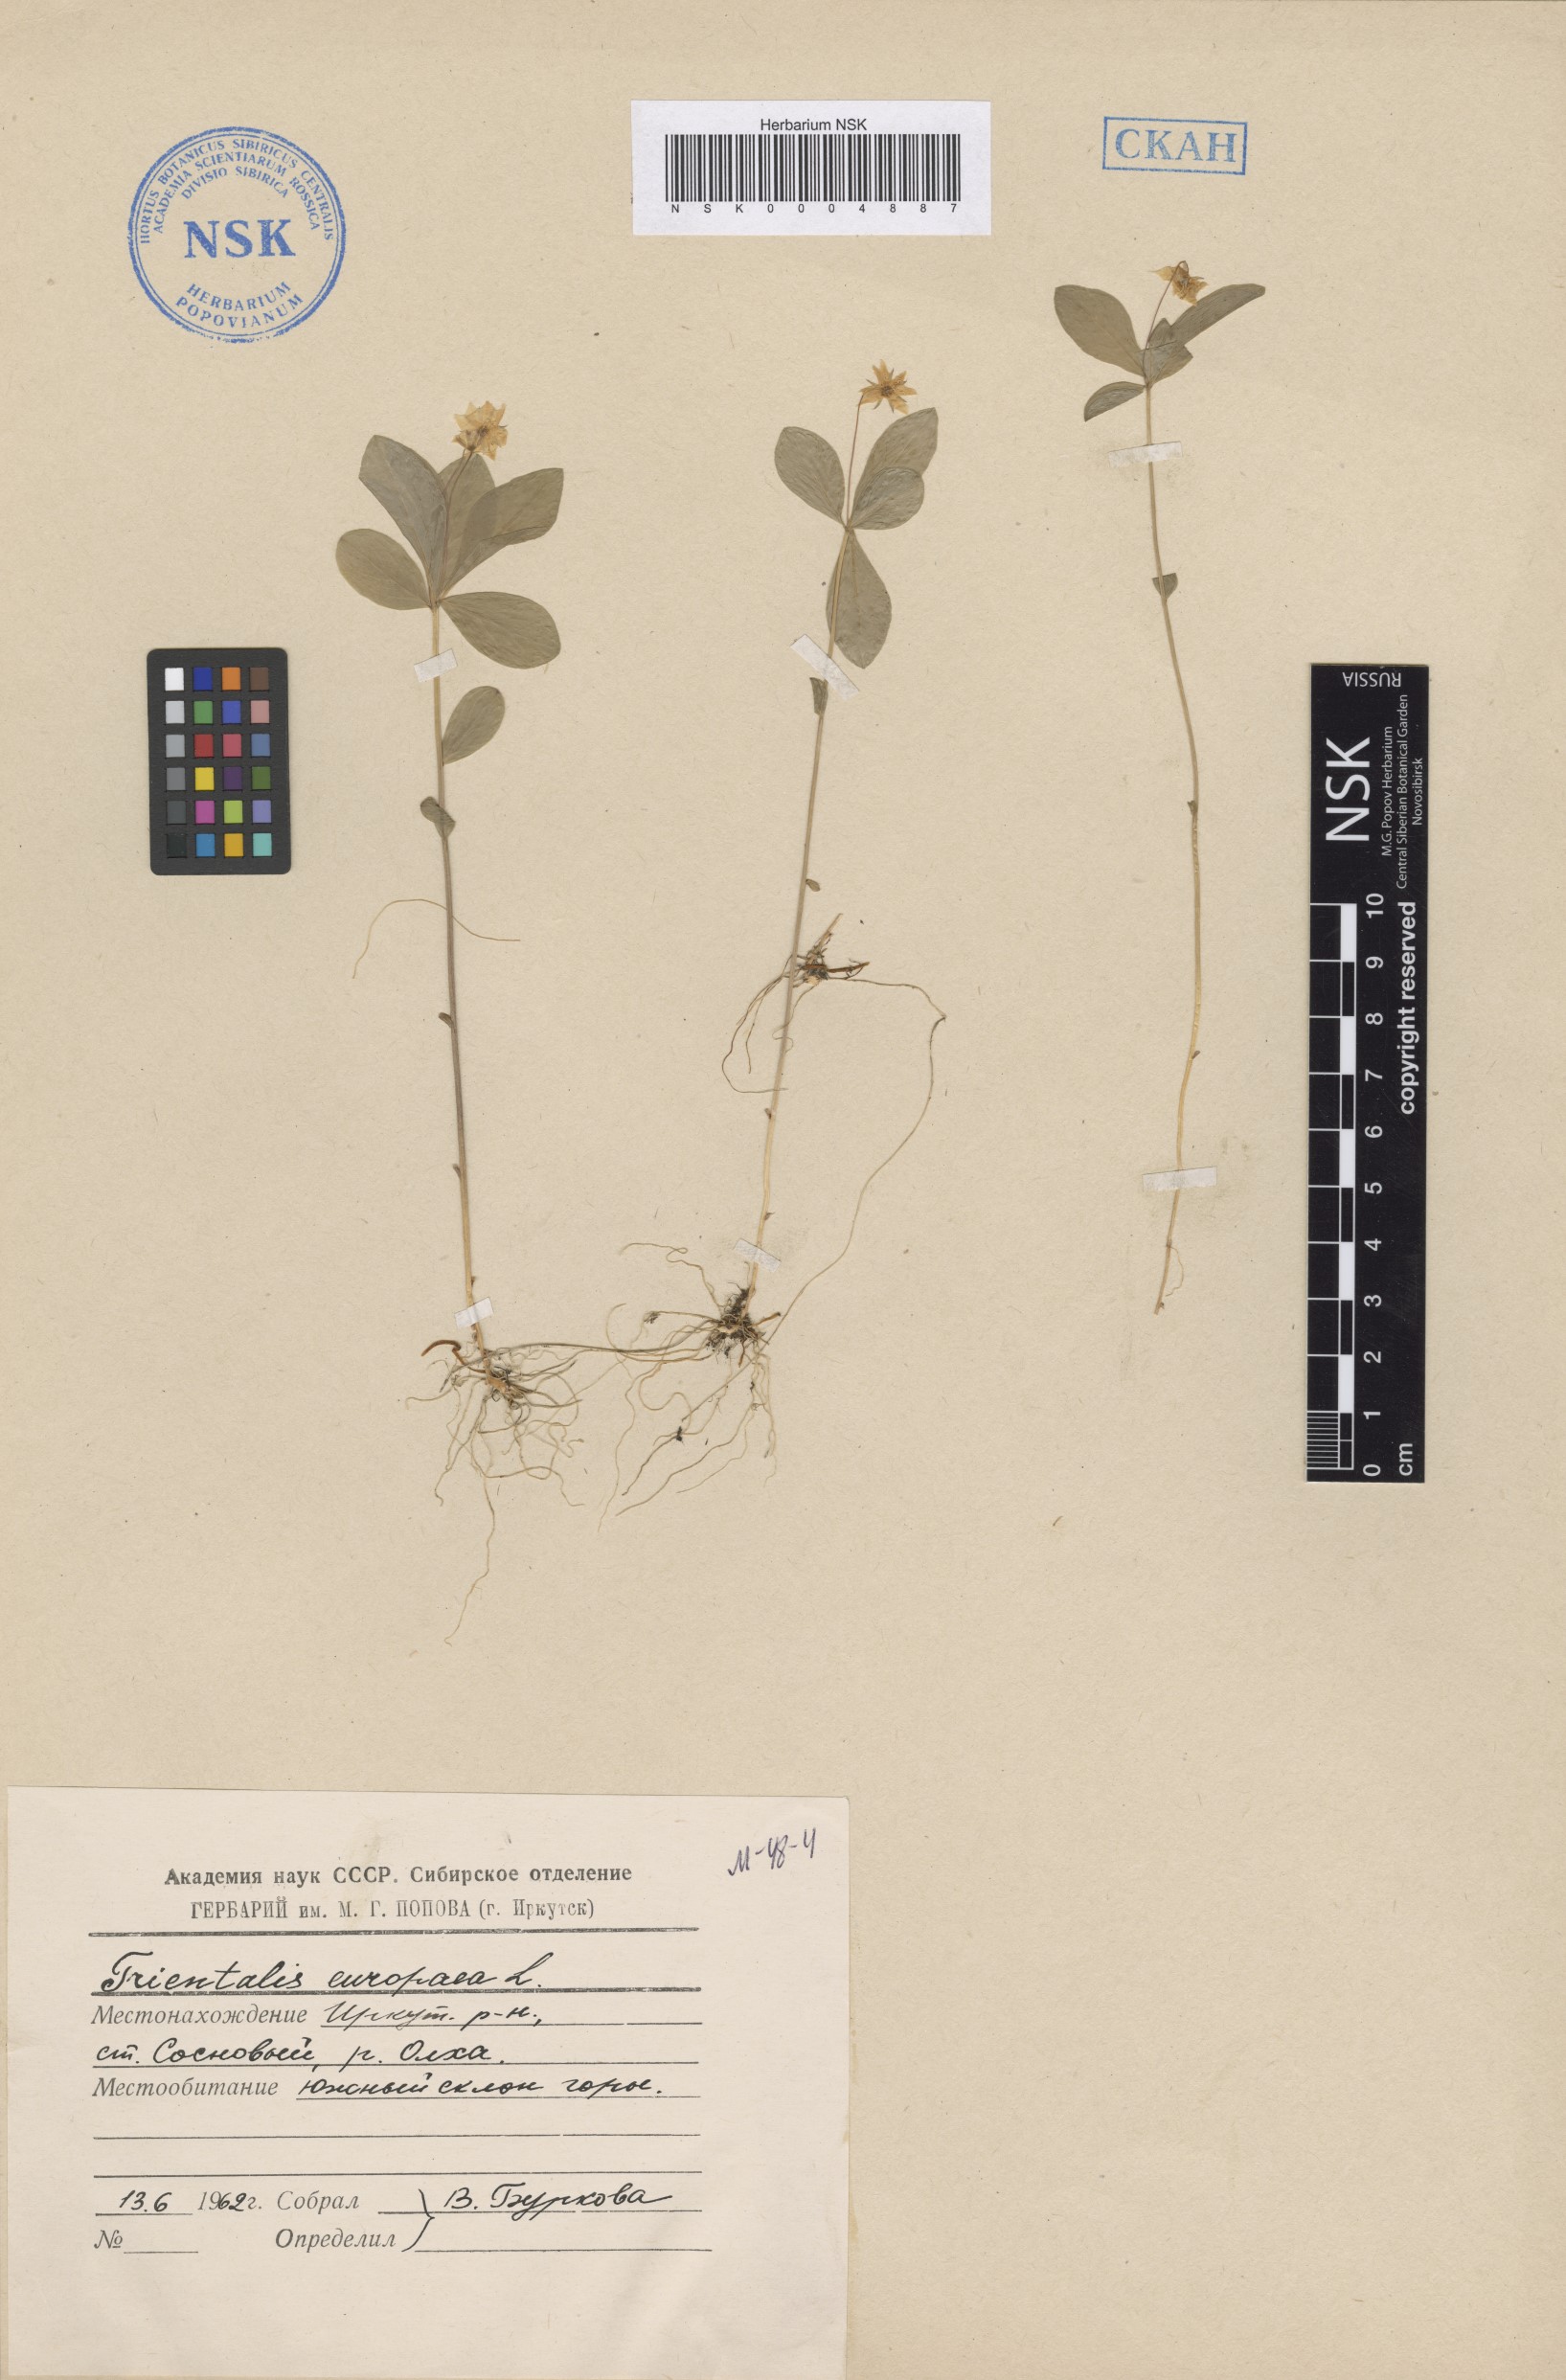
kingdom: Plantae
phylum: Tracheophyta
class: Magnoliopsida
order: Ericales
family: Primulaceae
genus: Lysimachia
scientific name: Lysimachia europaea
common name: Arctic starflower
